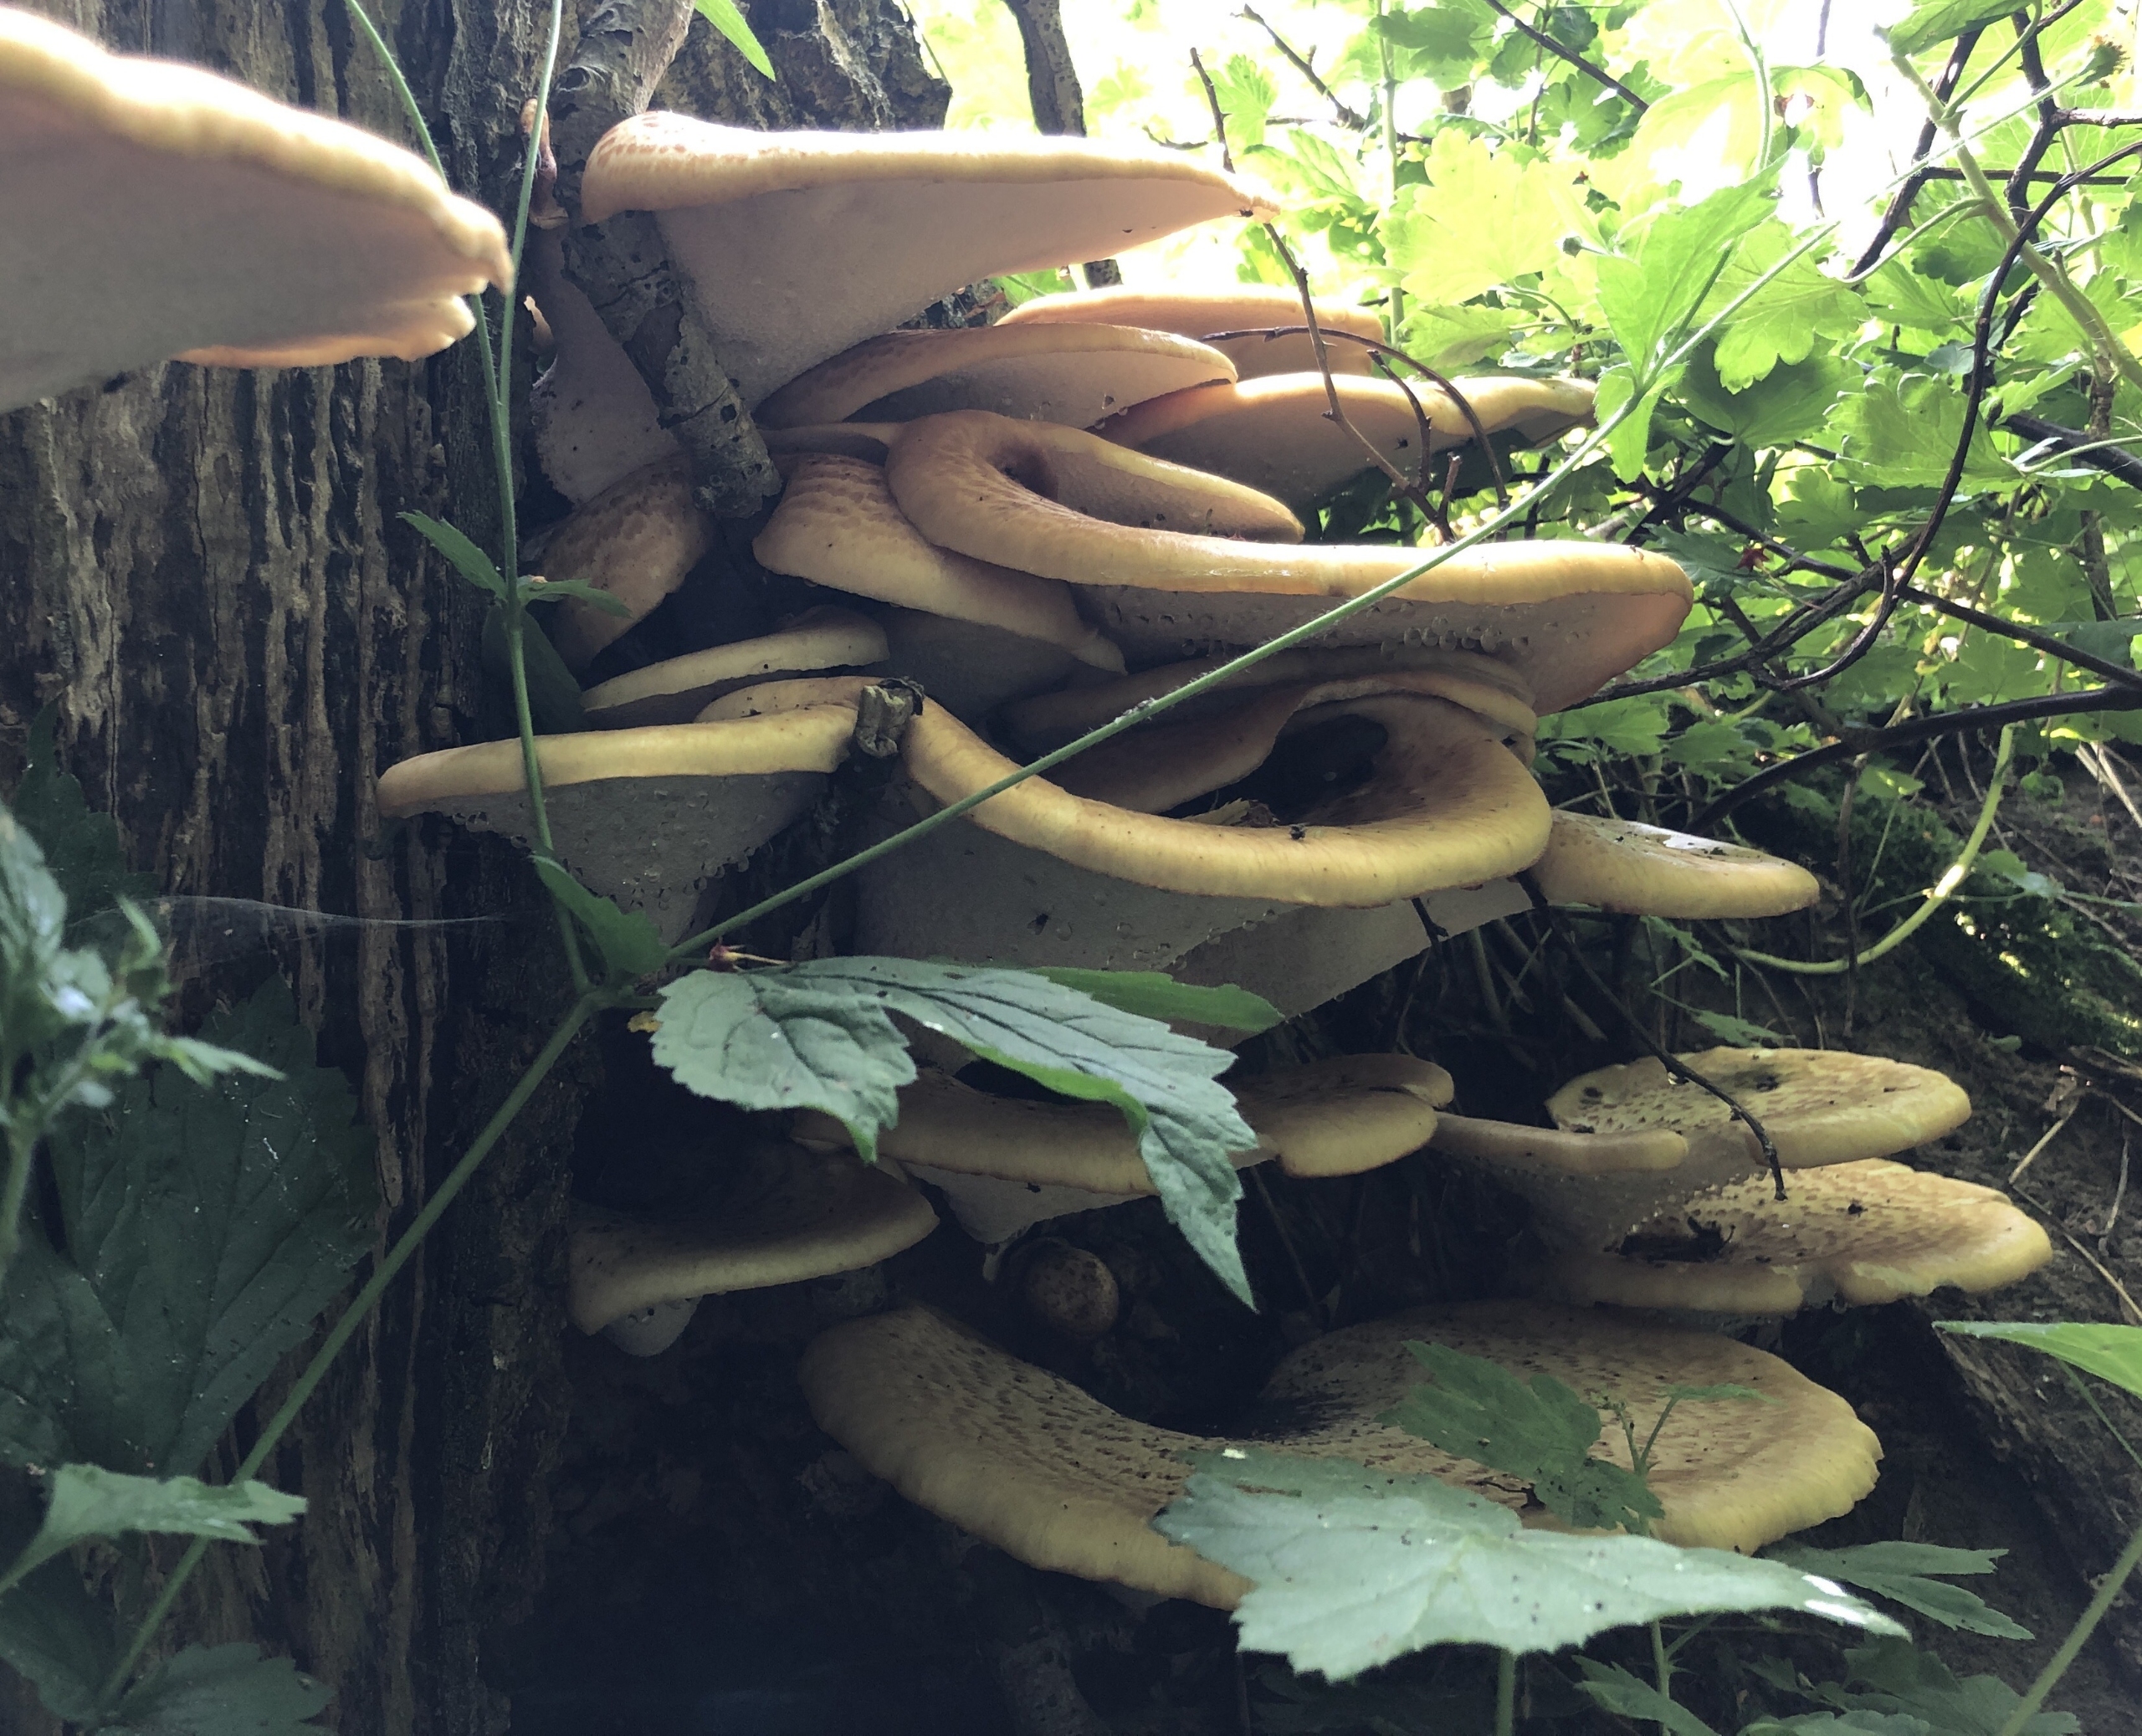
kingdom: Fungi
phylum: Basidiomycota
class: Agaricomycetes
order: Polyporales
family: Polyporaceae
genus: Cerioporus
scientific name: Cerioporus squamosus
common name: Skællet stilkporesvamp
